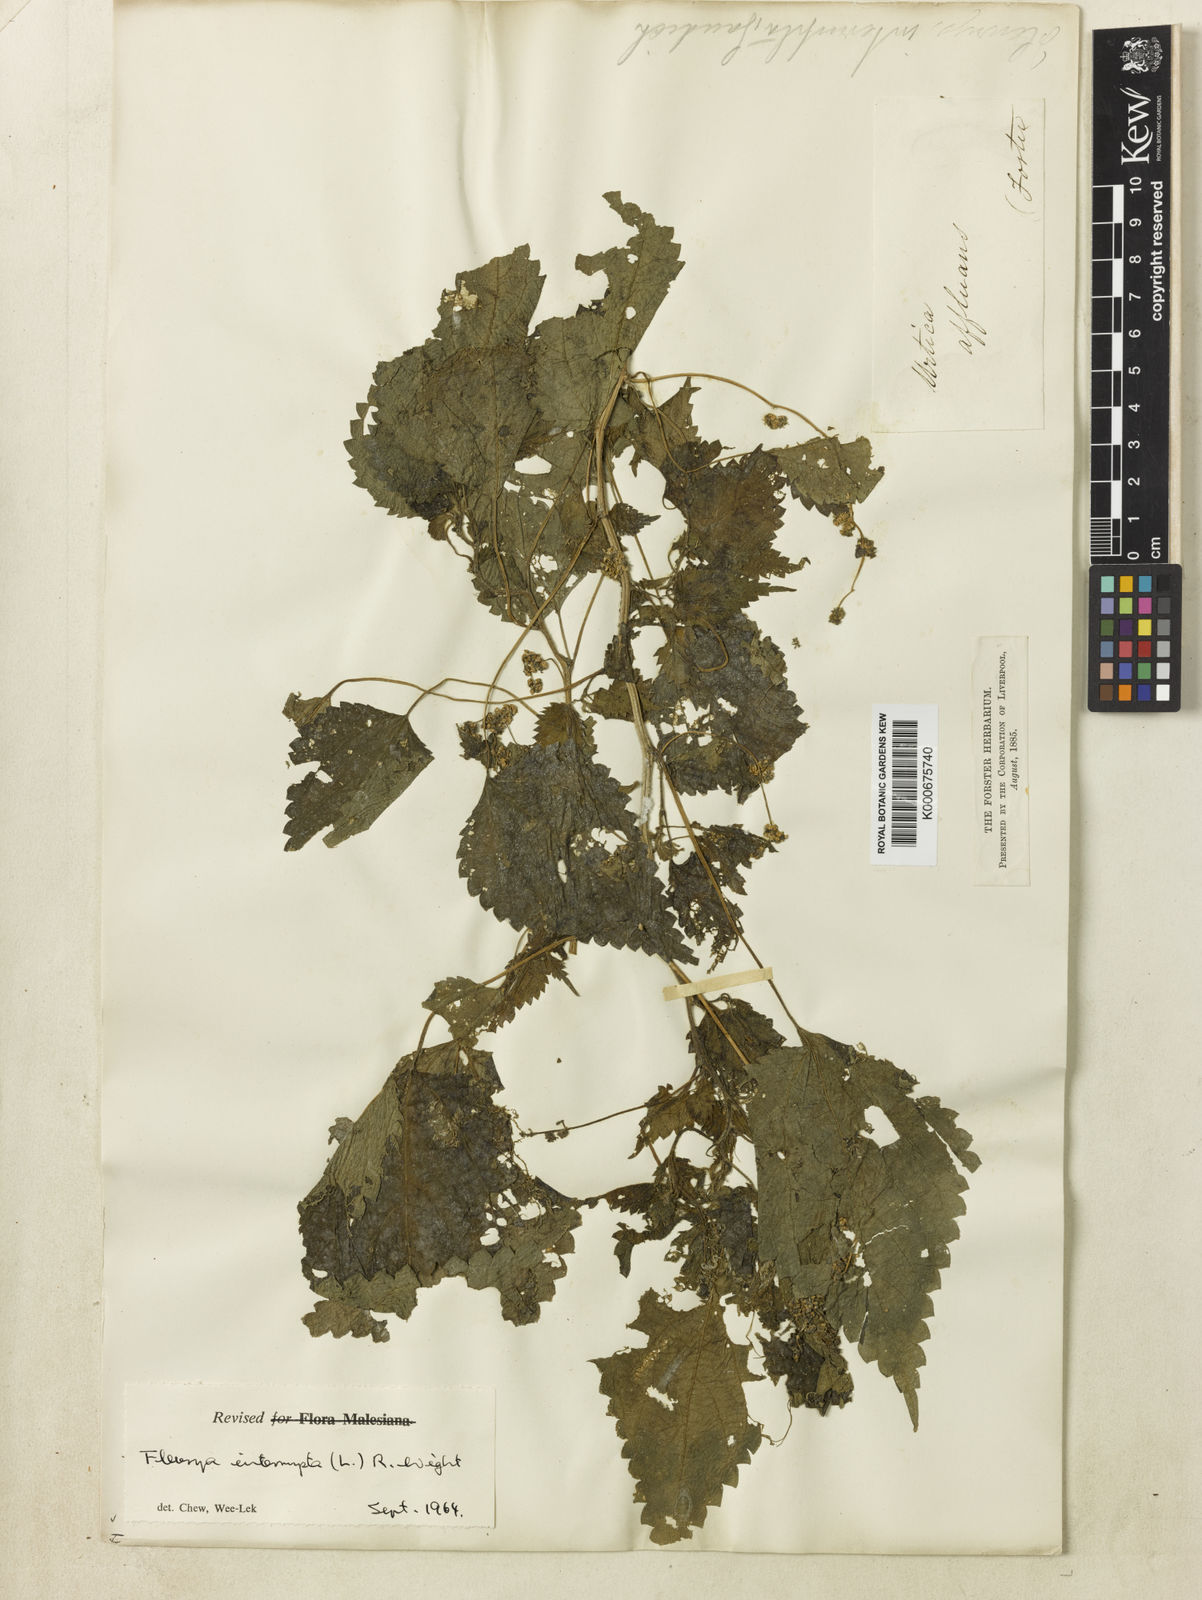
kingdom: Plantae
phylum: Tracheophyta
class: Magnoliopsida
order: Rosales
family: Urticaceae
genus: Laportea
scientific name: Laportea interrupta
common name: Hawaiian wood-nettle
